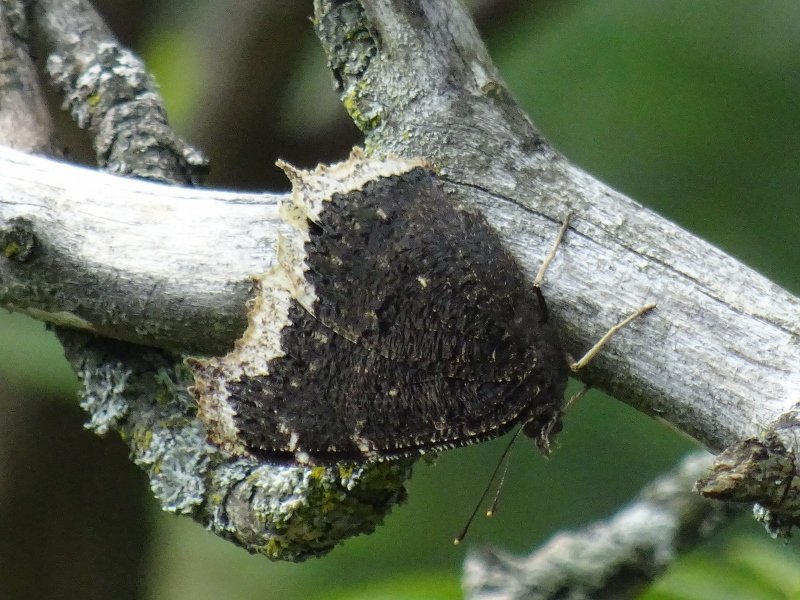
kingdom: Animalia
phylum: Arthropoda
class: Insecta
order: Lepidoptera
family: Nymphalidae
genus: Nymphalis
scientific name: Nymphalis antiopa
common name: Mourning Cloak
